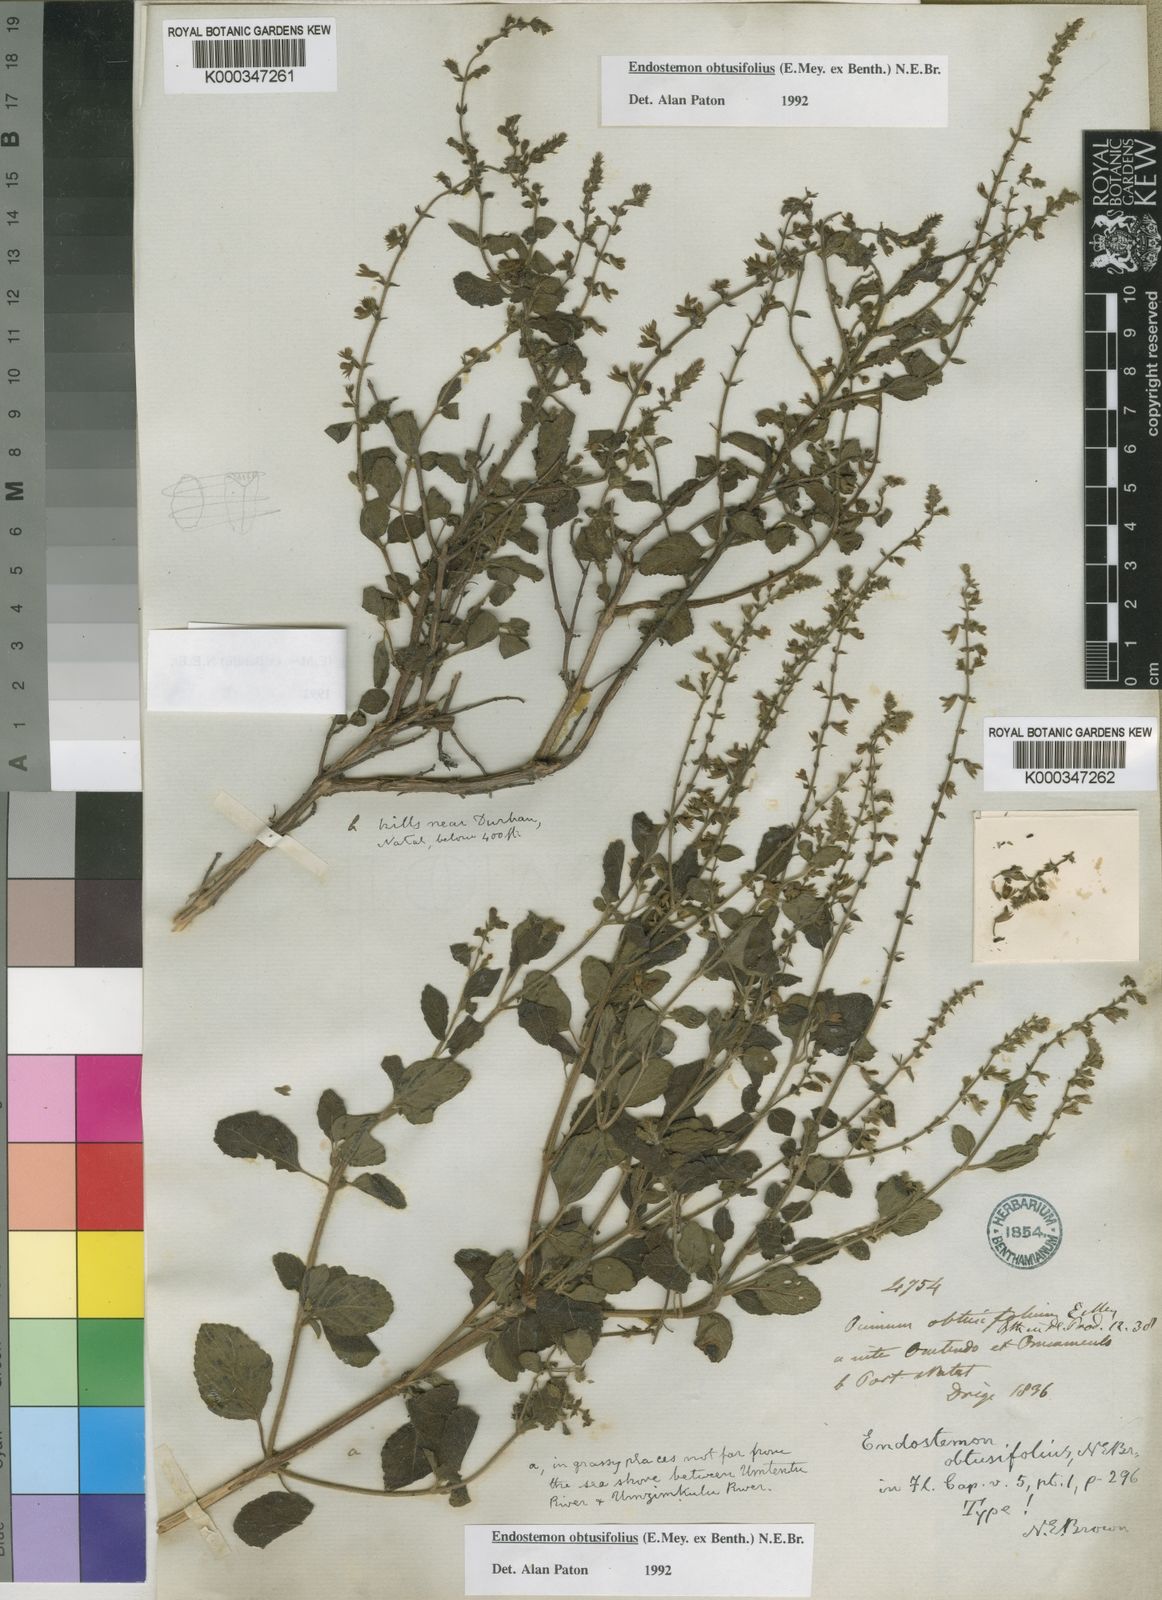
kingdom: Plantae
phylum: Tracheophyta
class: Magnoliopsida
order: Lamiales
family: Lamiaceae
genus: Endostemon
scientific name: Endostemon obtusifolius
